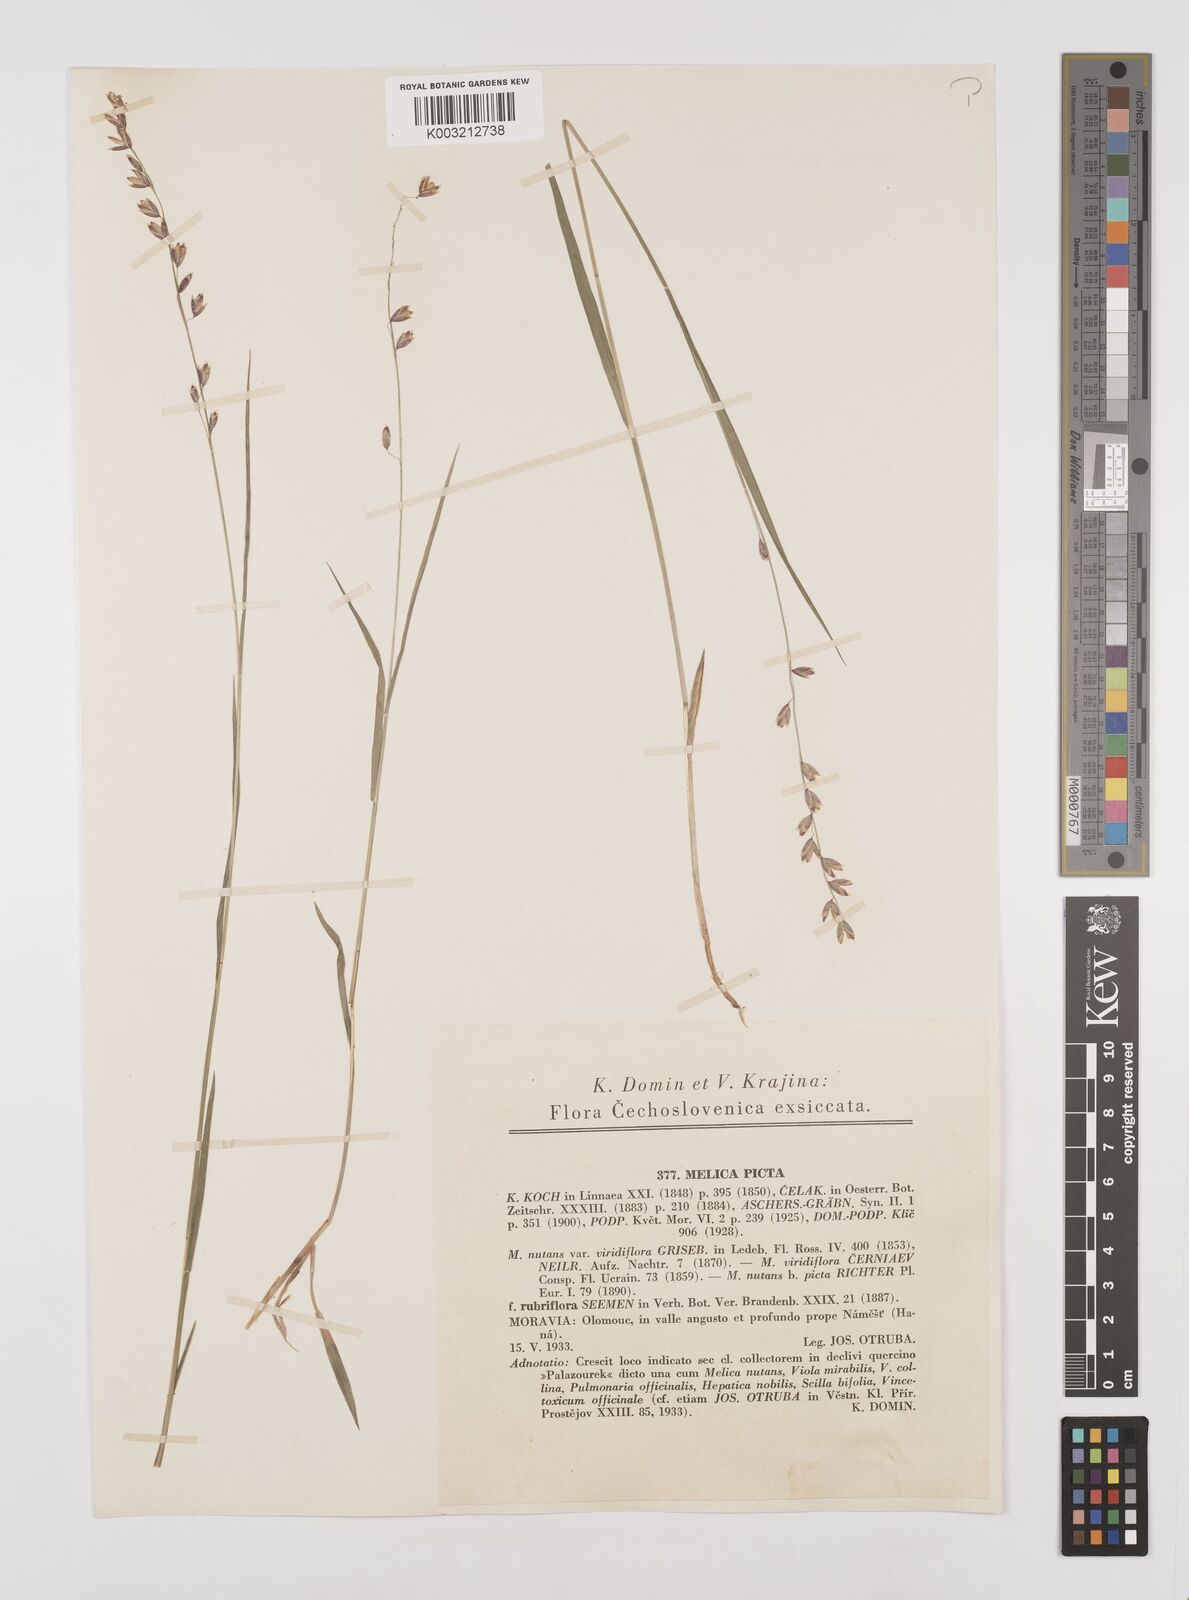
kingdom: Plantae
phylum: Tracheophyta
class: Liliopsida
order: Poales
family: Poaceae
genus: Melica
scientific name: Melica picta
